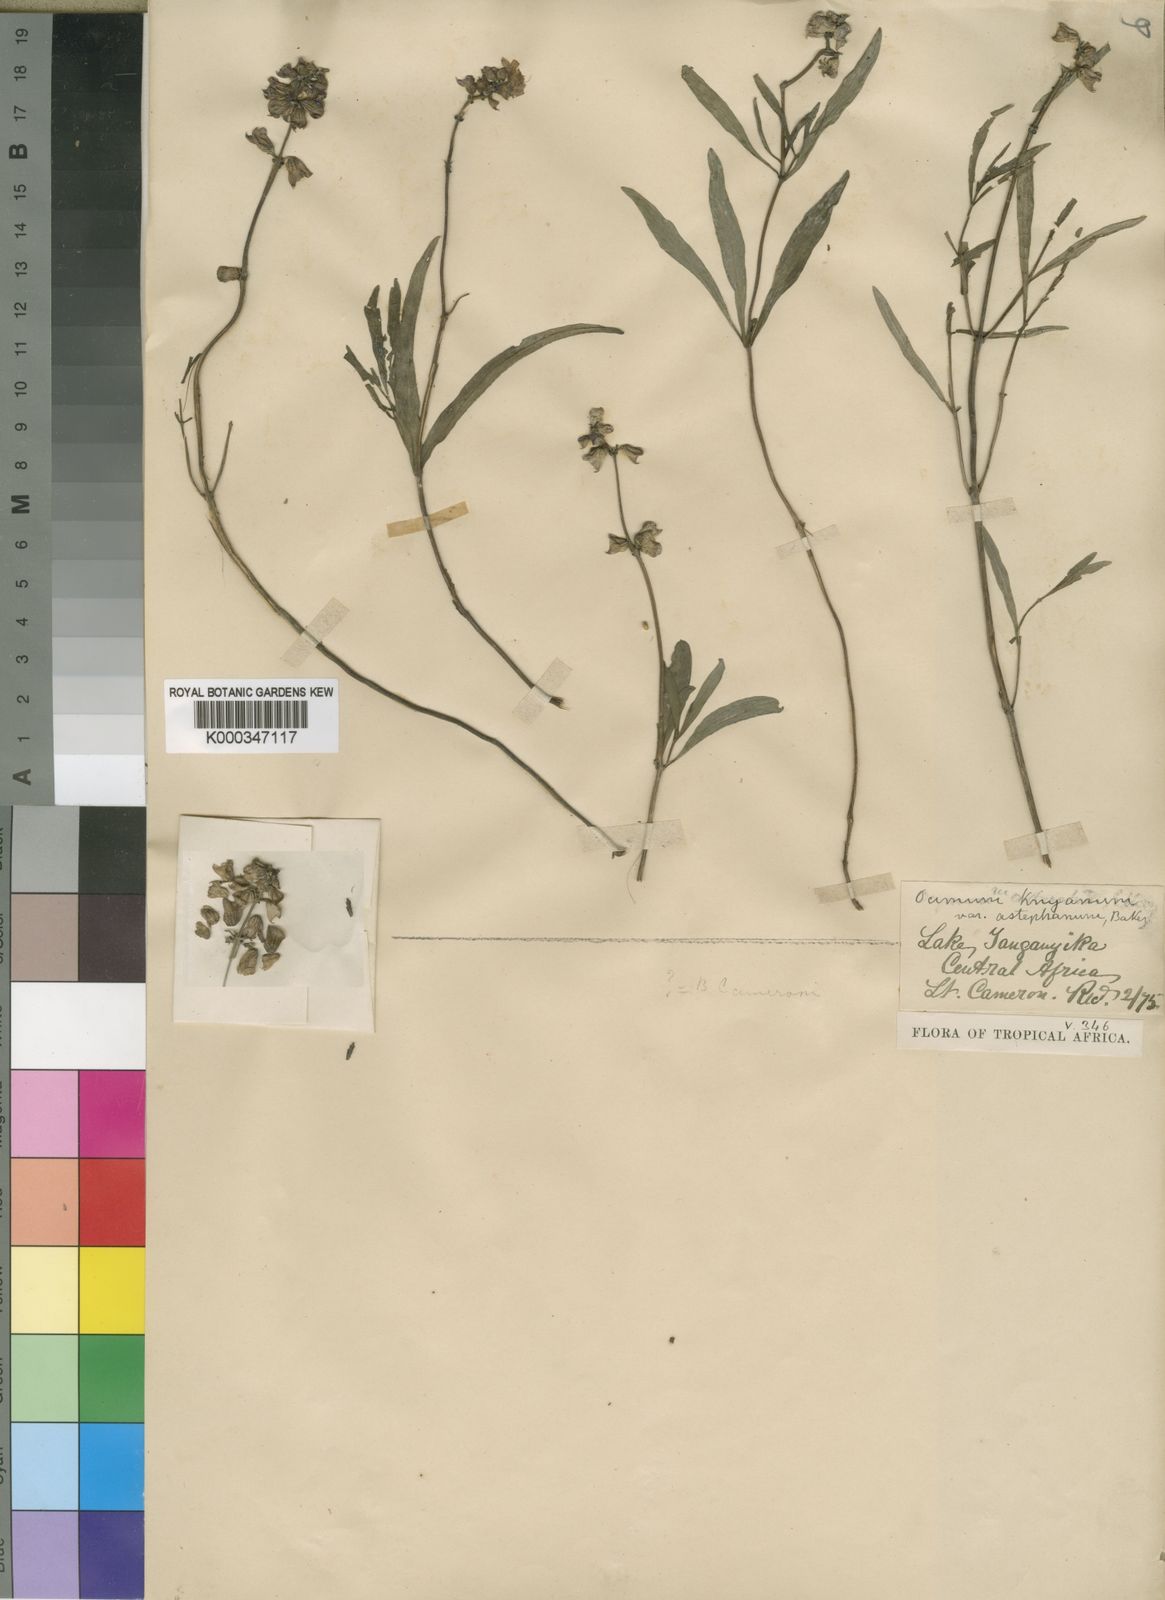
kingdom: Plantae
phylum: Tracheophyta
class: Magnoliopsida
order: Lamiales
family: Lamiaceae
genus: Ocimum
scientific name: Ocimum obovatum
